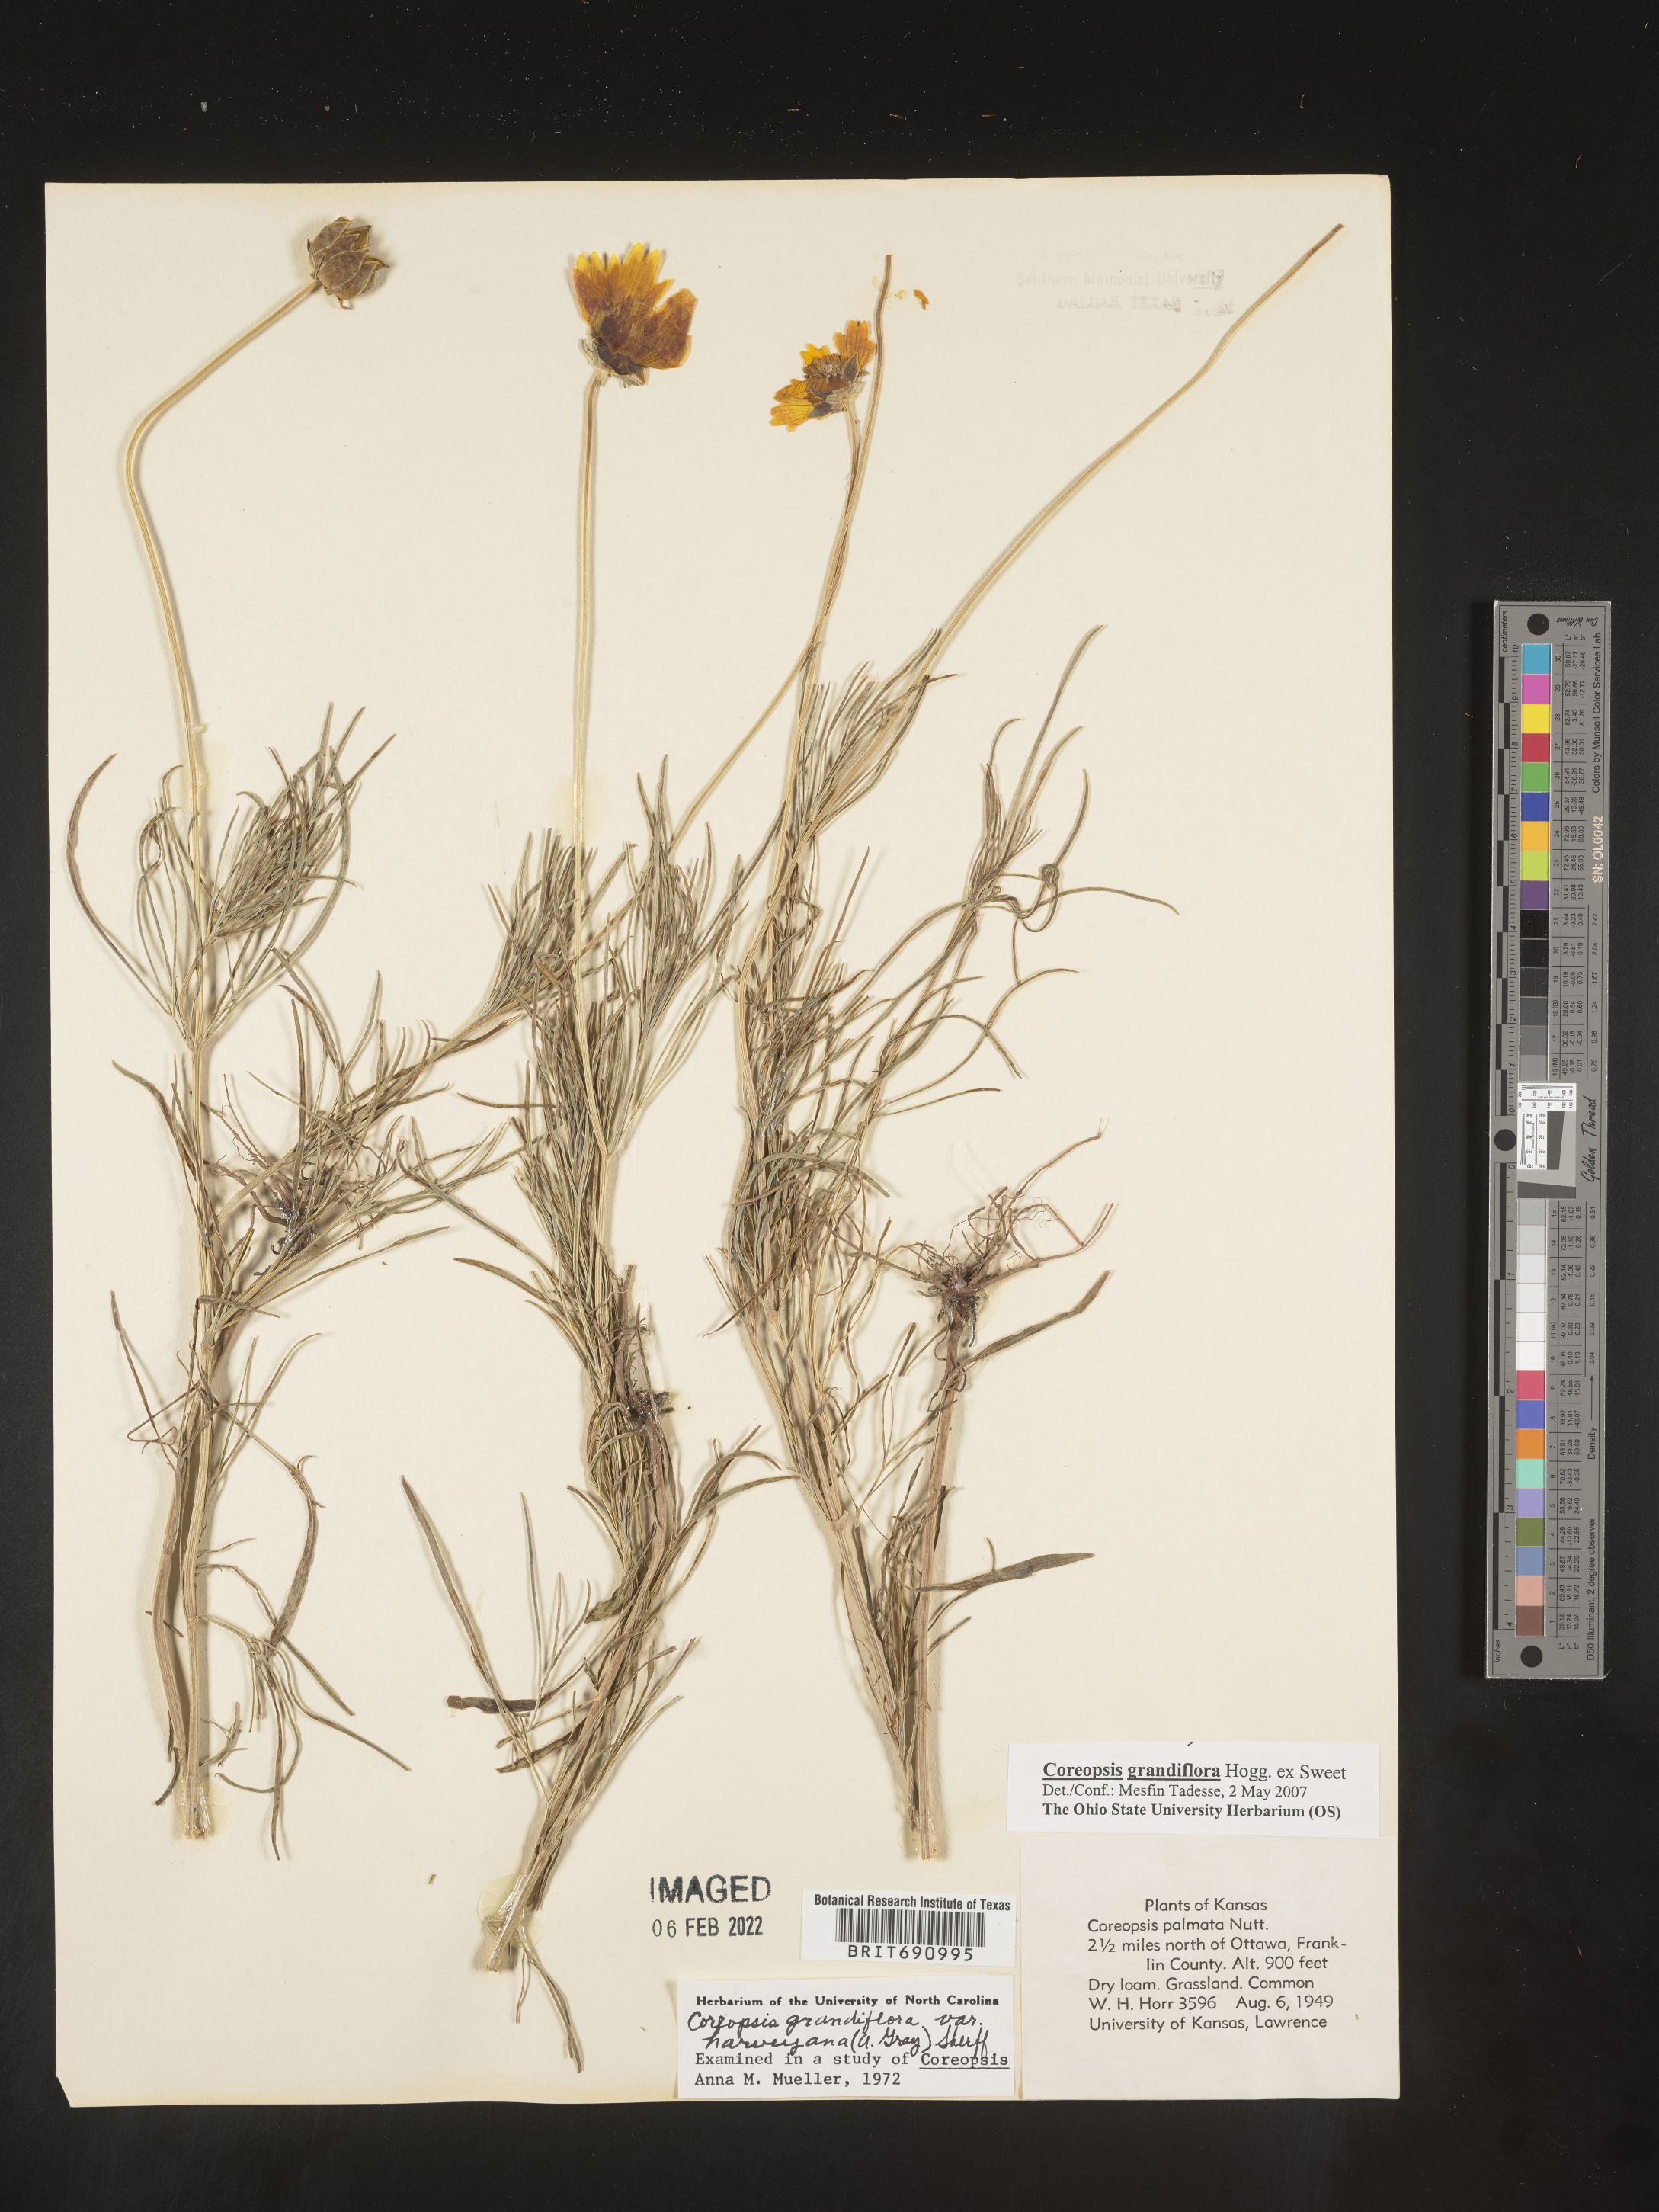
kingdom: Plantae
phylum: Tracheophyta
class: Magnoliopsida
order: Asterales
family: Asteraceae
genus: Coreopsis
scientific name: Coreopsis grandiflora
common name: Large-flowered tickseed
